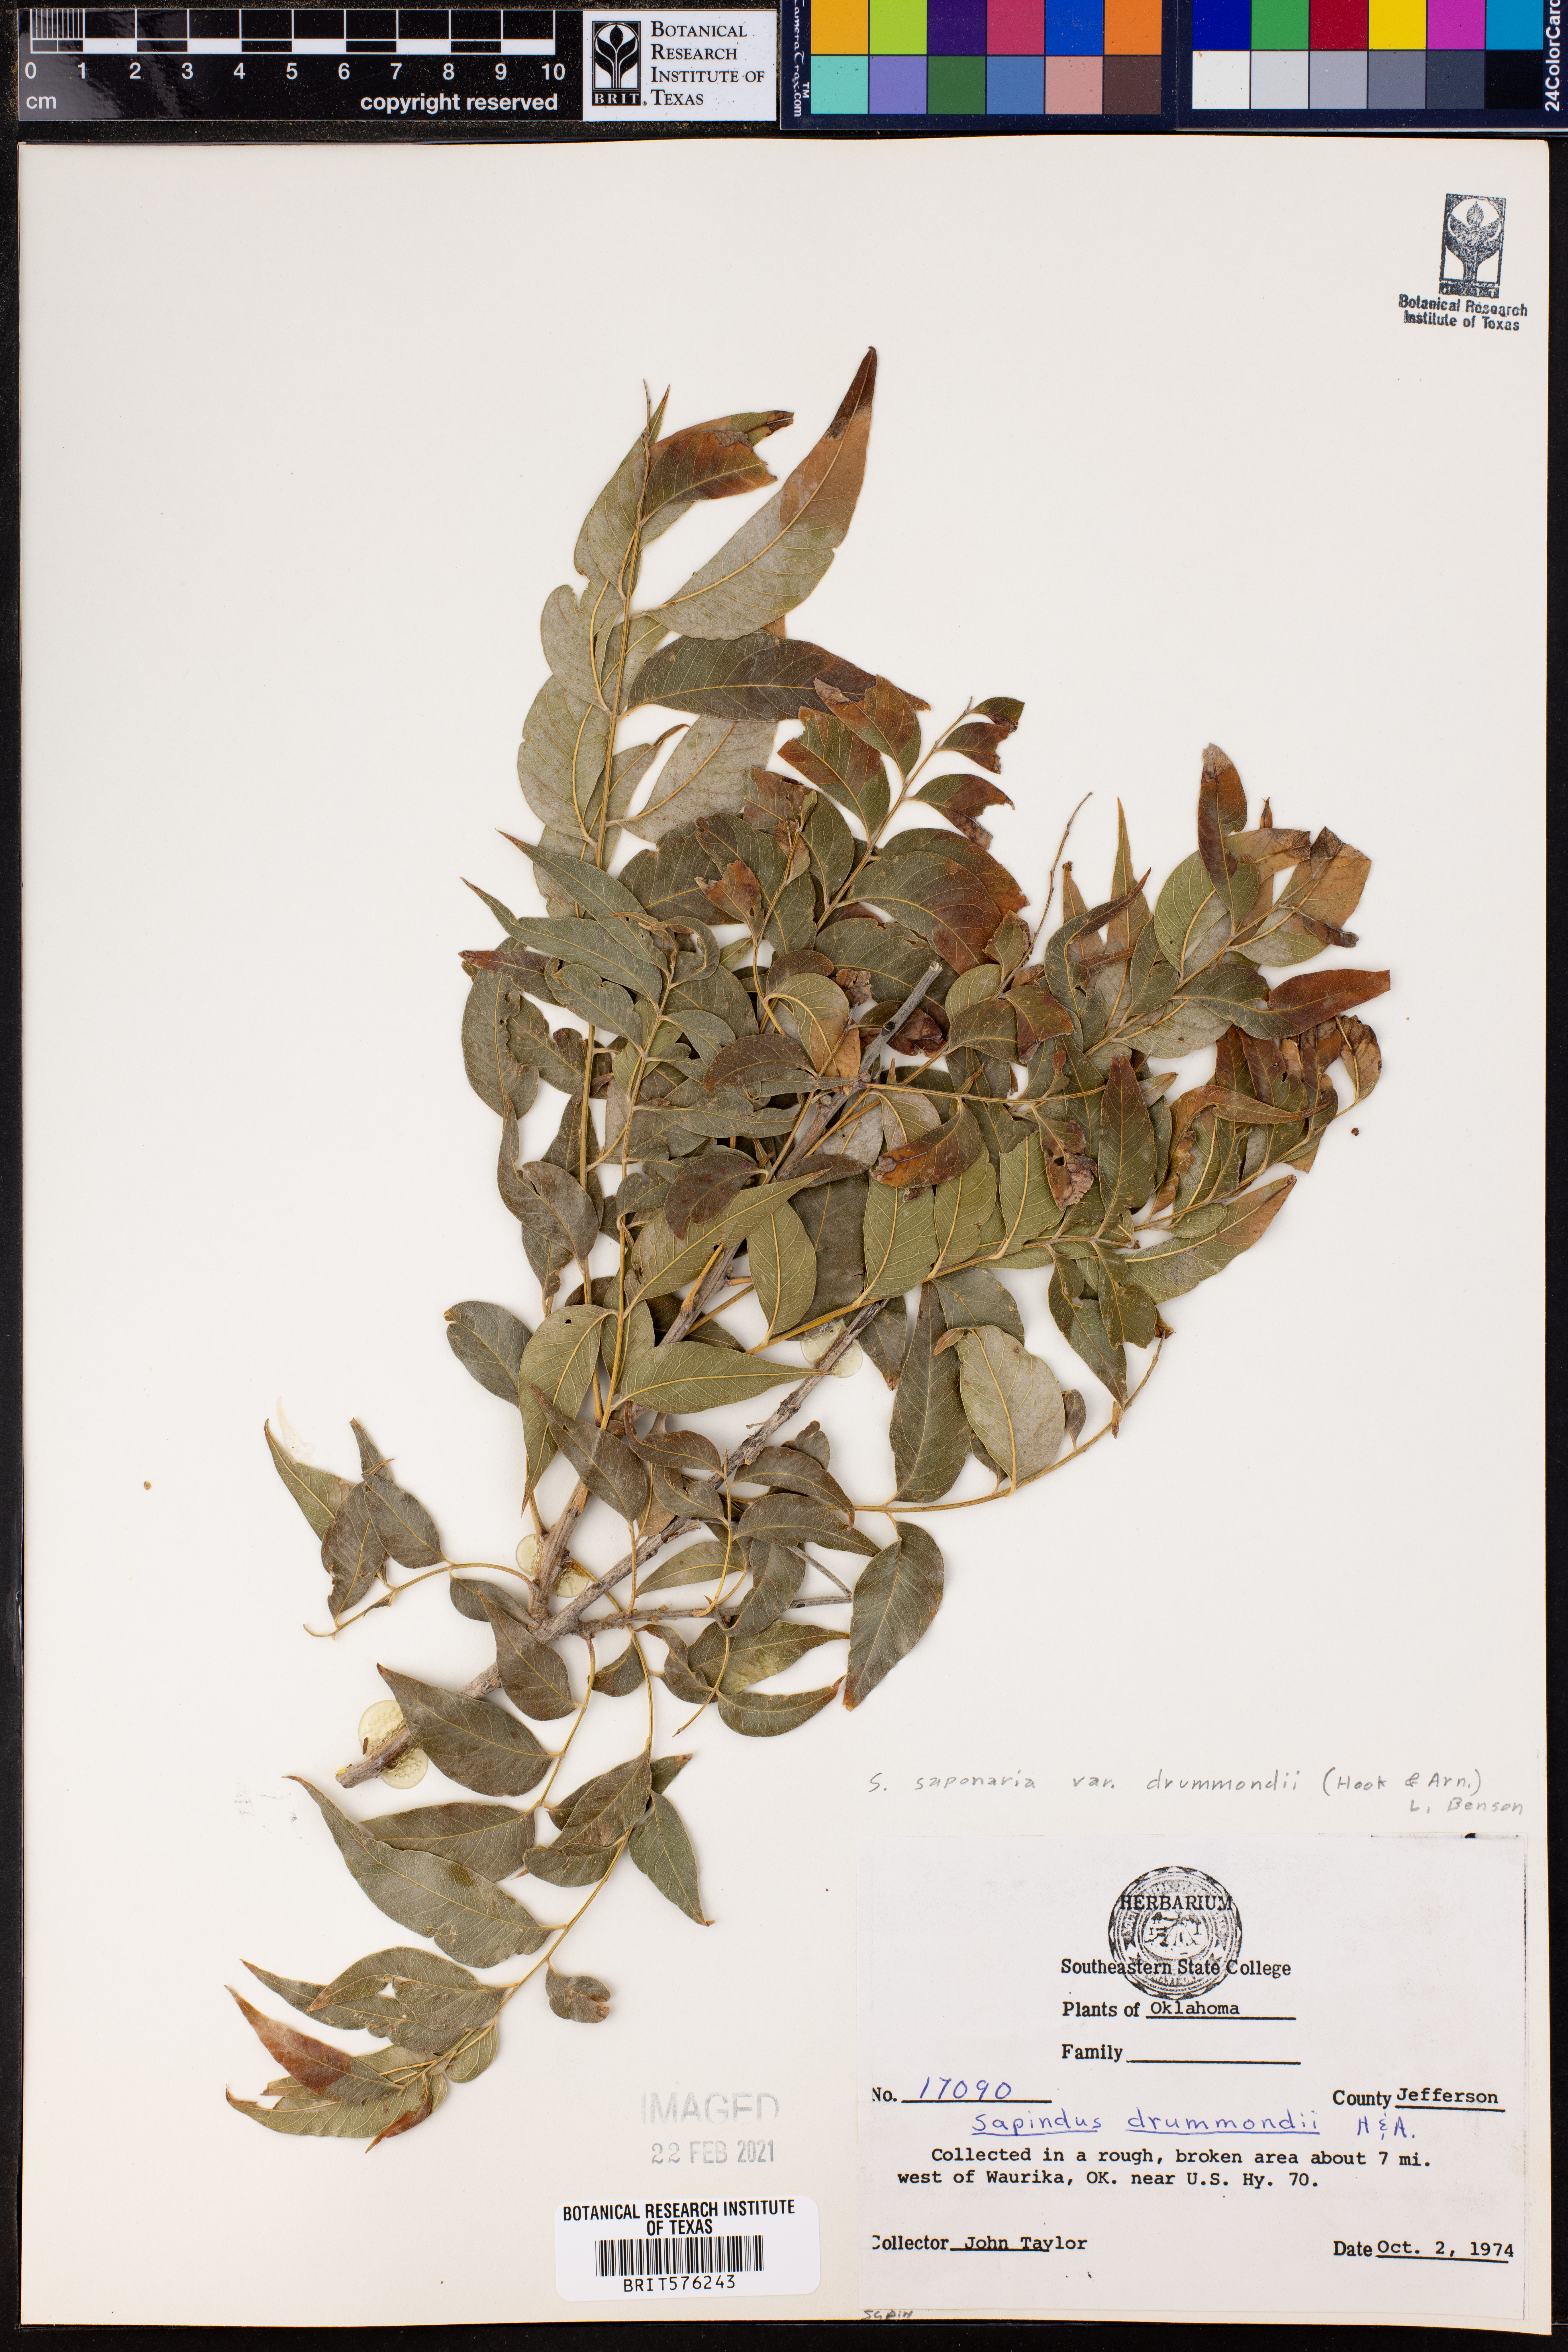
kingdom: Plantae
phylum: Tracheophyta
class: Magnoliopsida
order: Sapindales
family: Sapindaceae
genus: Sapindus
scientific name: Sapindus drummondii
